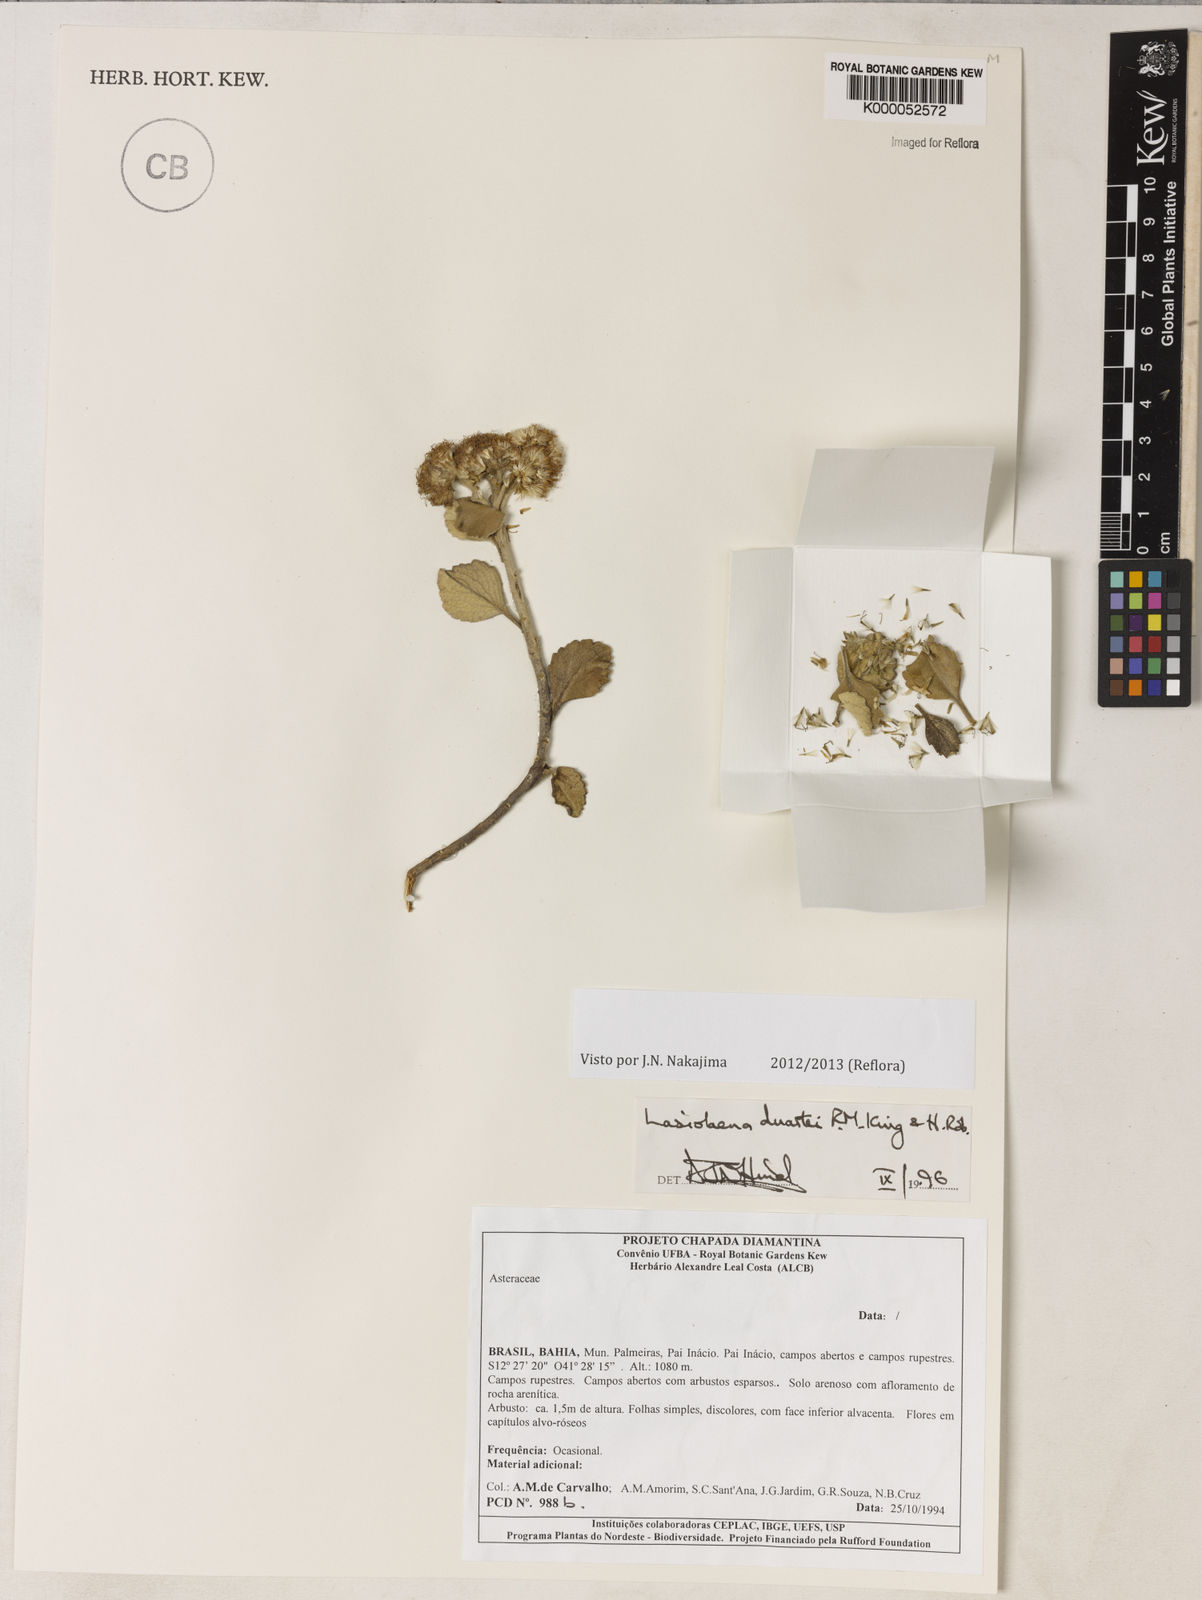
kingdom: Plantae
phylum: Tracheophyta
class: Magnoliopsida
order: Asterales
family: Asteraceae
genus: Lasiolaena
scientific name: Lasiolaena duartei
